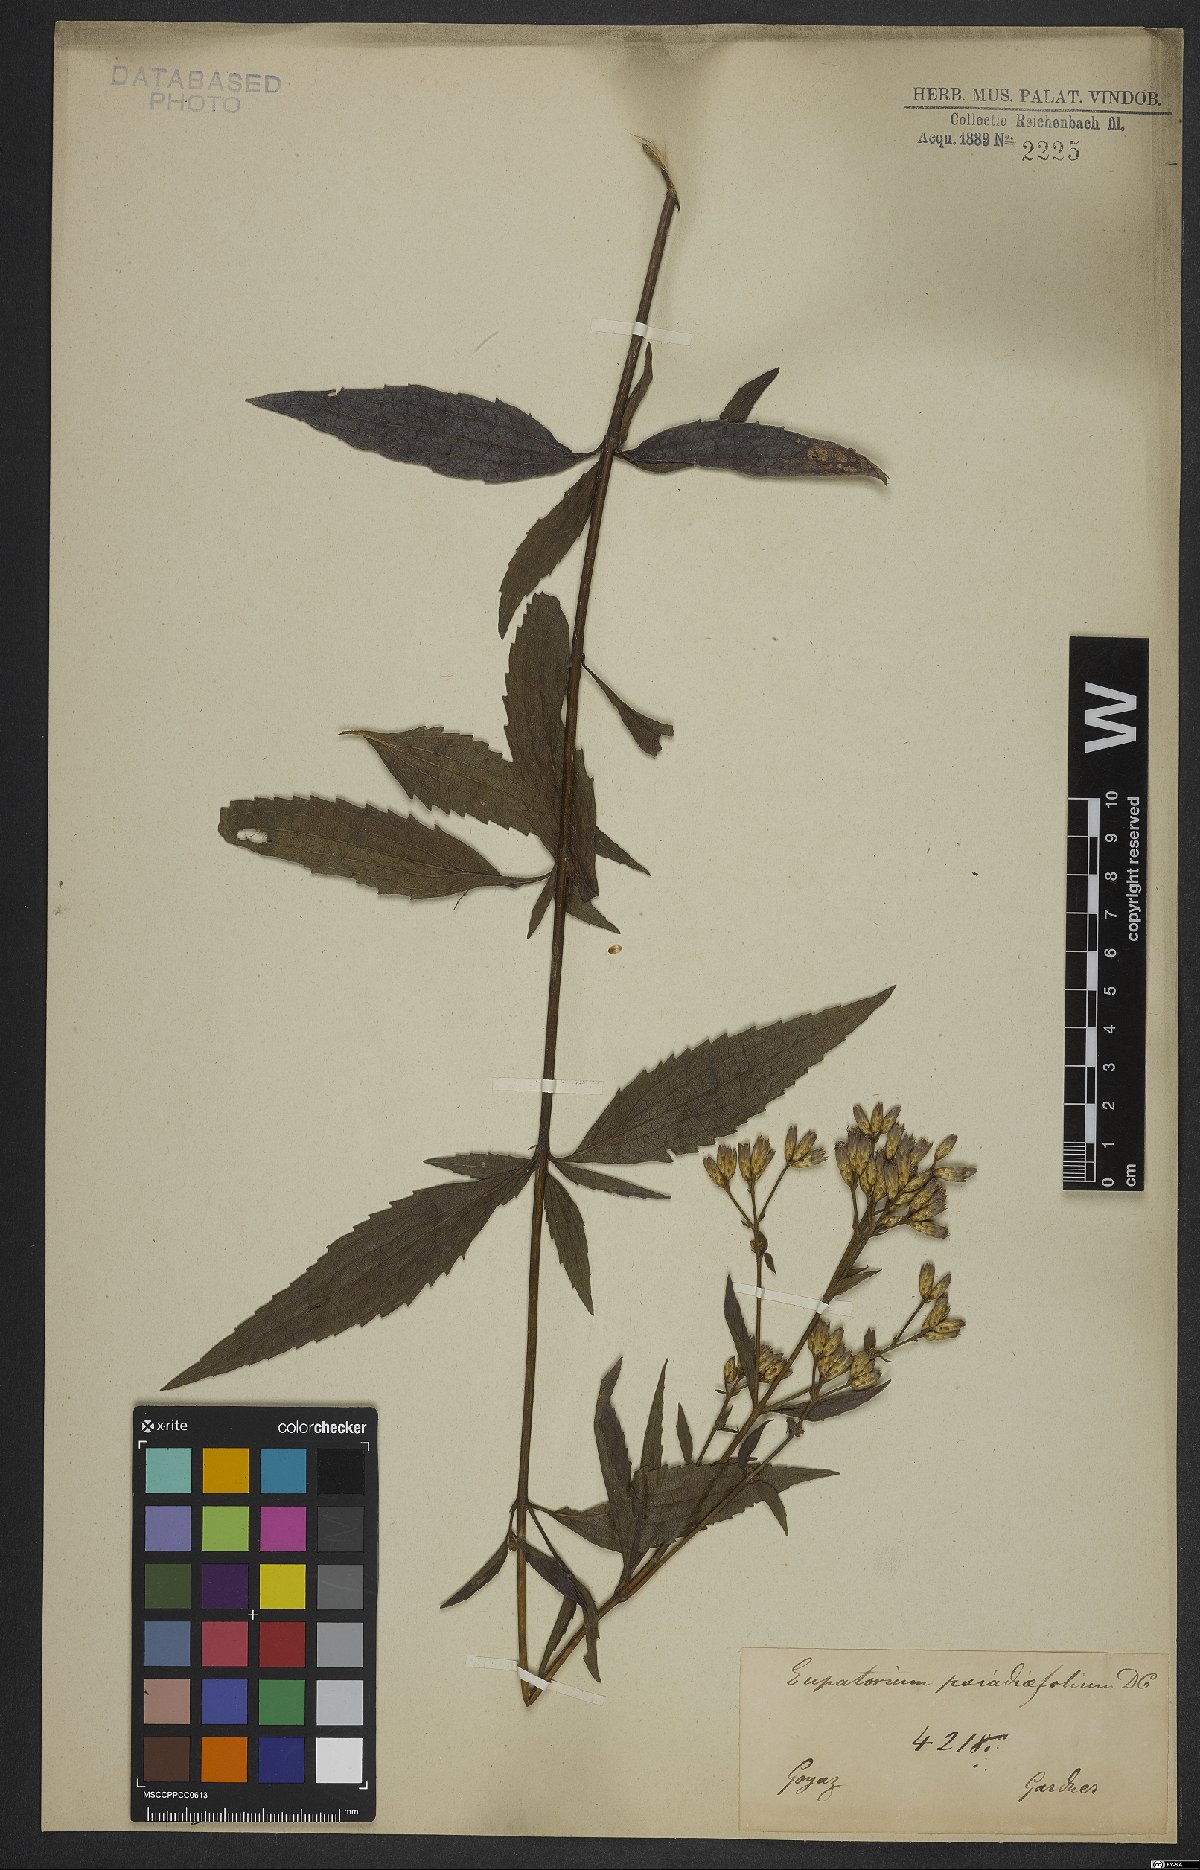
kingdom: Plantae
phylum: Tracheophyta
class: Magnoliopsida
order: Asterales
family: Asteraceae
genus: Eupatorium
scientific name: Eupatorium laevigatum
